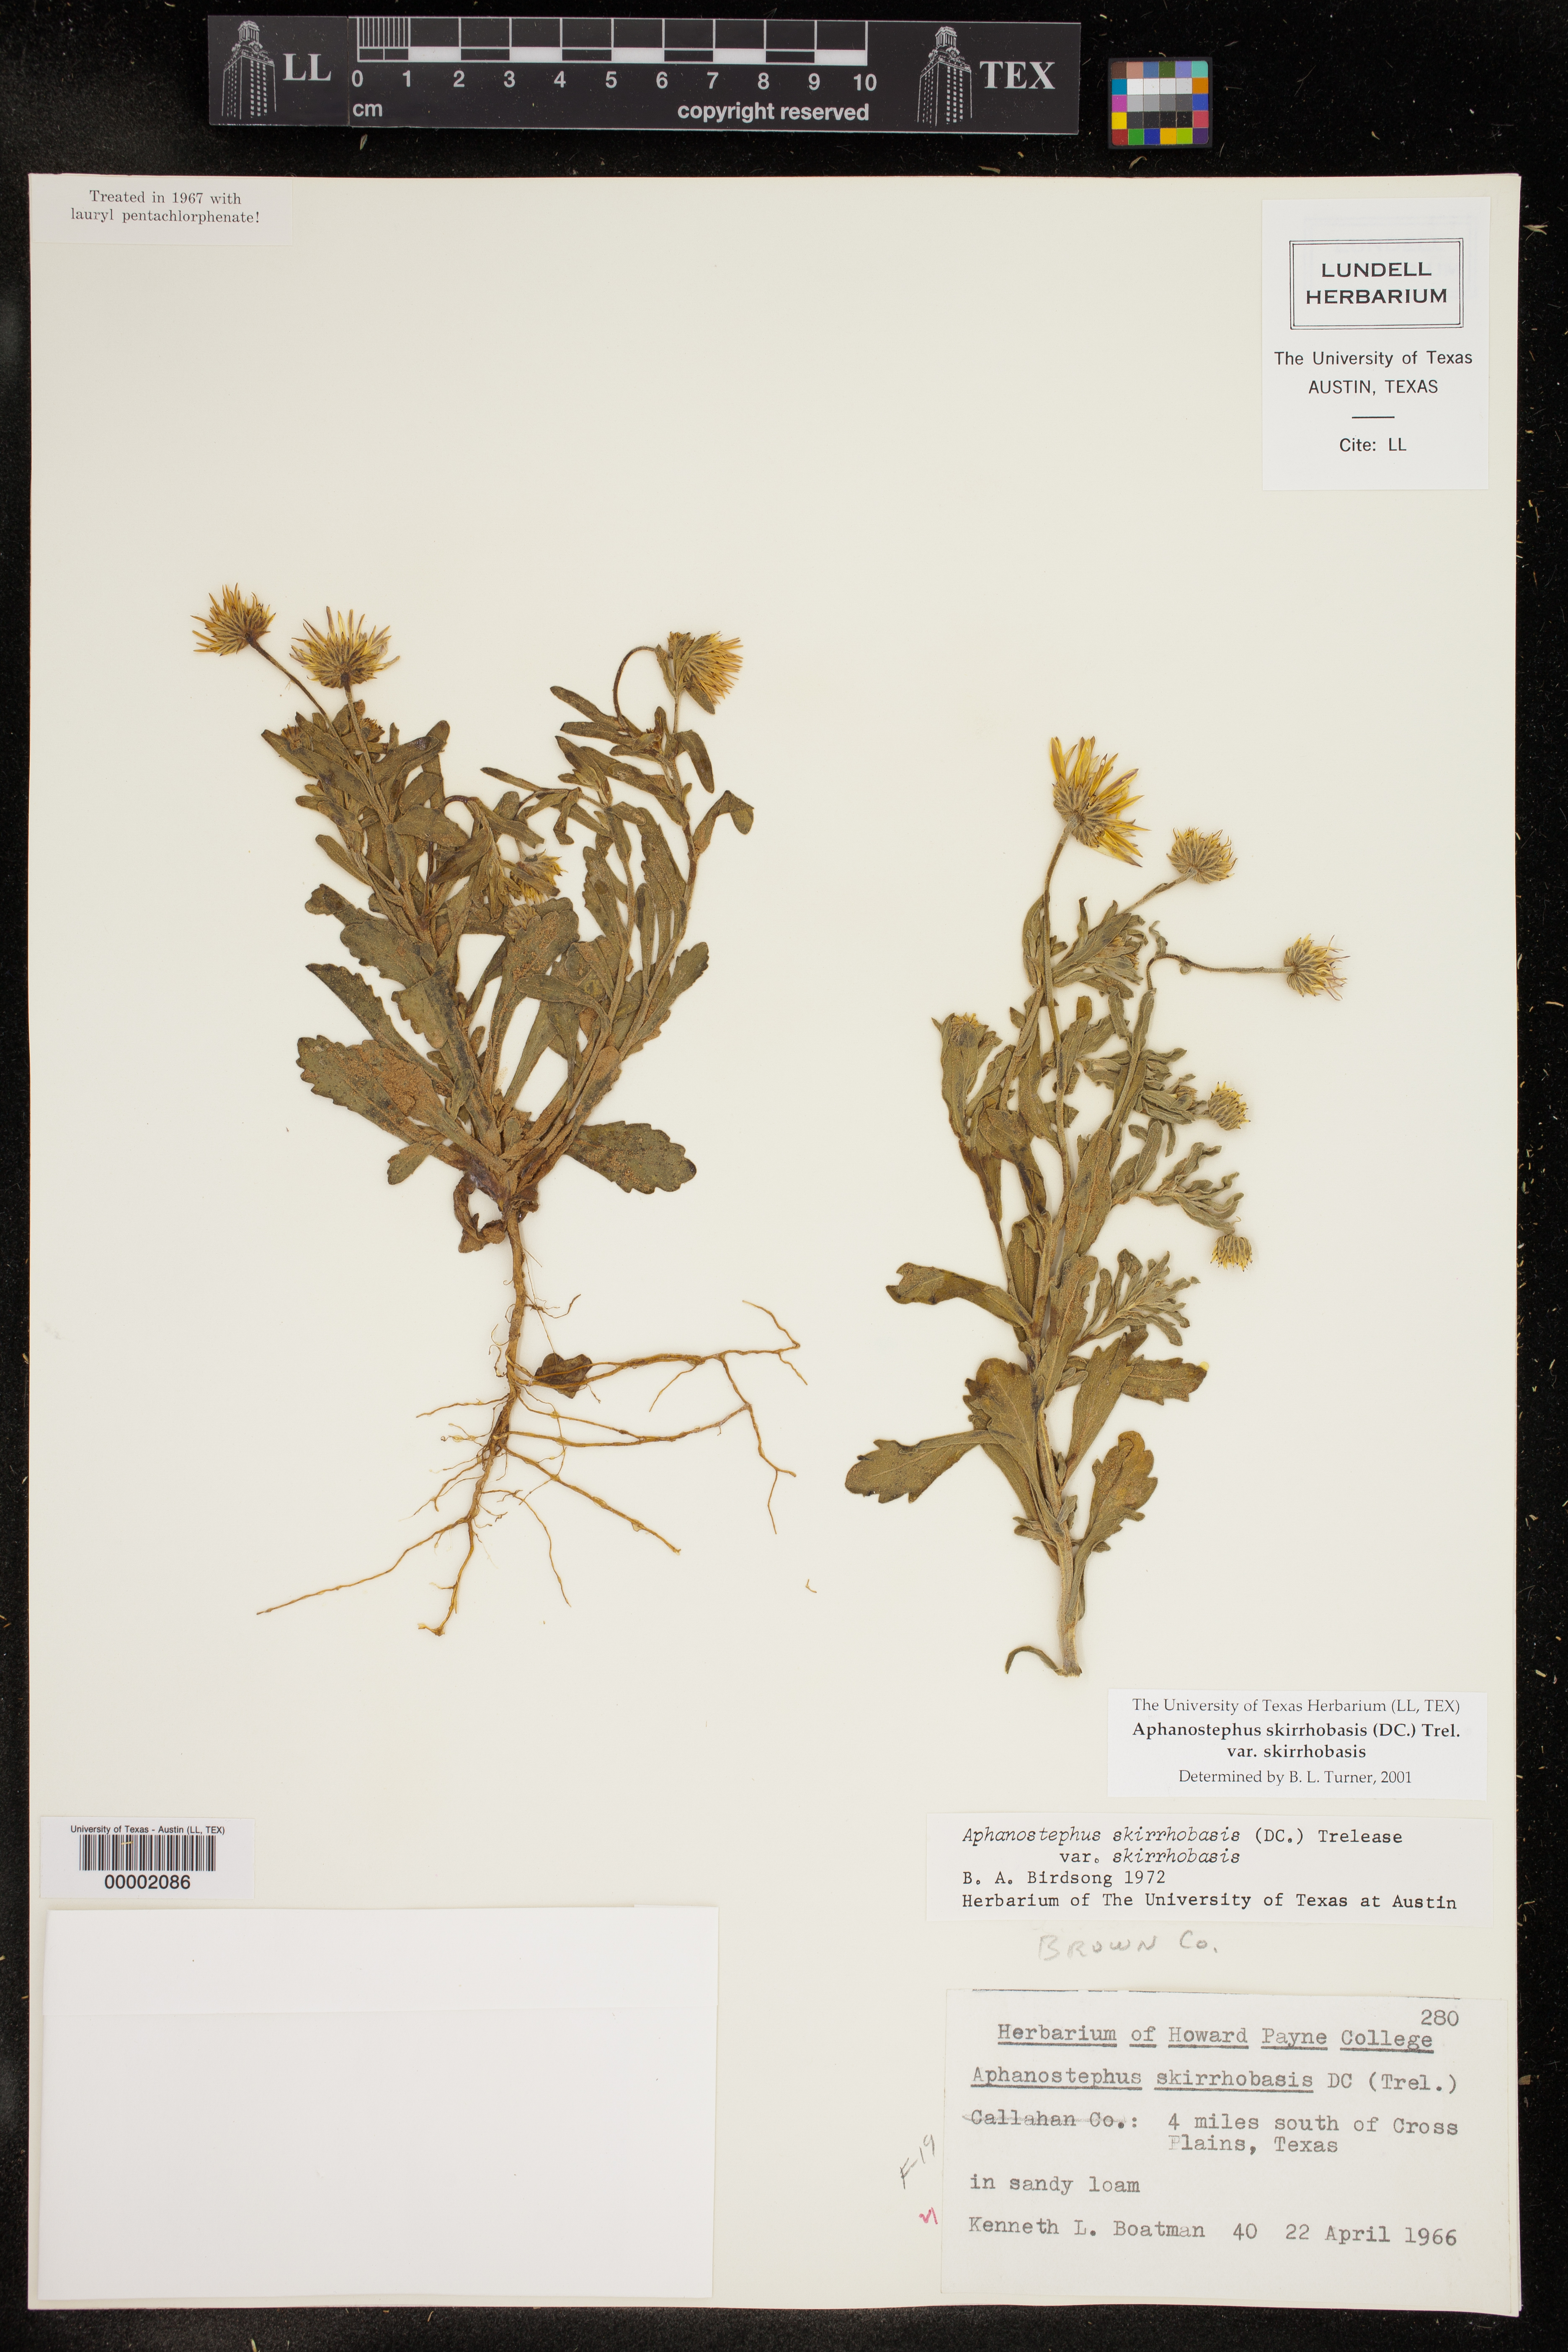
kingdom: Plantae
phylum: Tracheophyta
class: Magnoliopsida
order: Asterales
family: Asteraceae
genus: Aphanostephus
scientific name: Aphanostephus skirrhobasis
